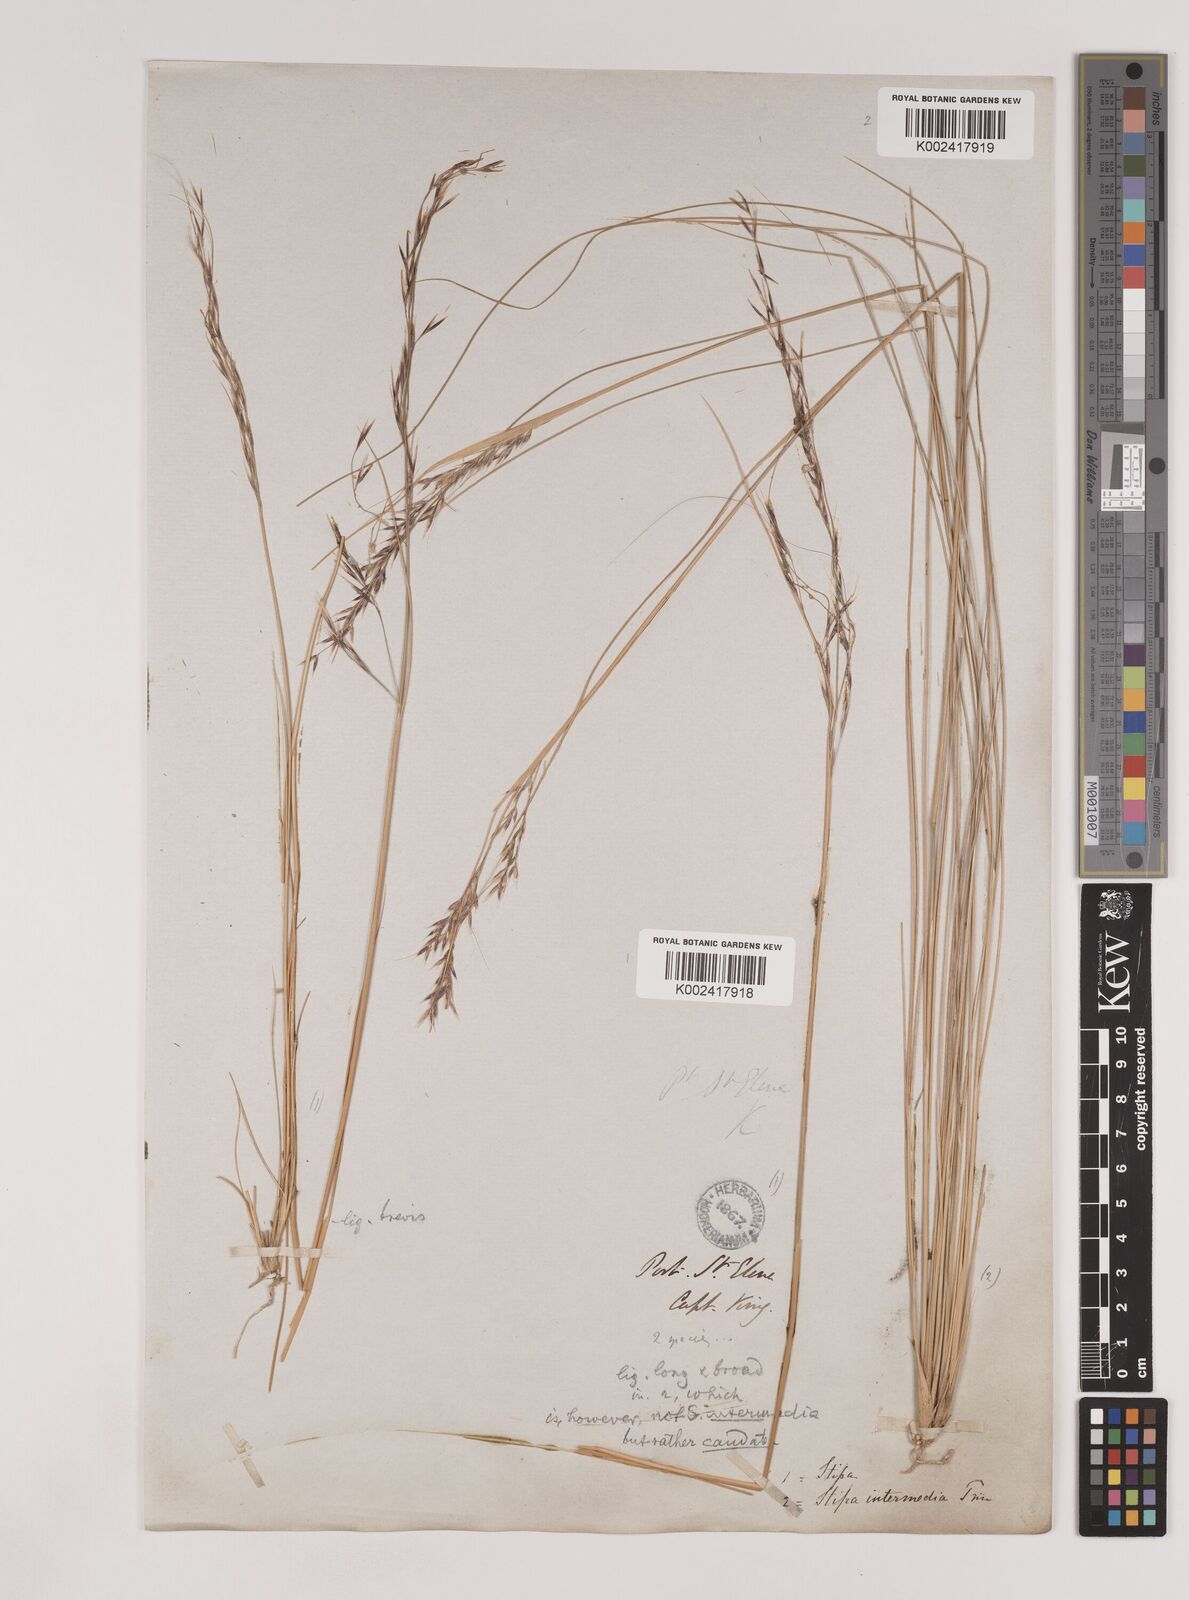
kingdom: Plantae
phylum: Tracheophyta
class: Liliopsida
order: Poales
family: Poaceae
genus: Nassella
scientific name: Nassella pampeana
